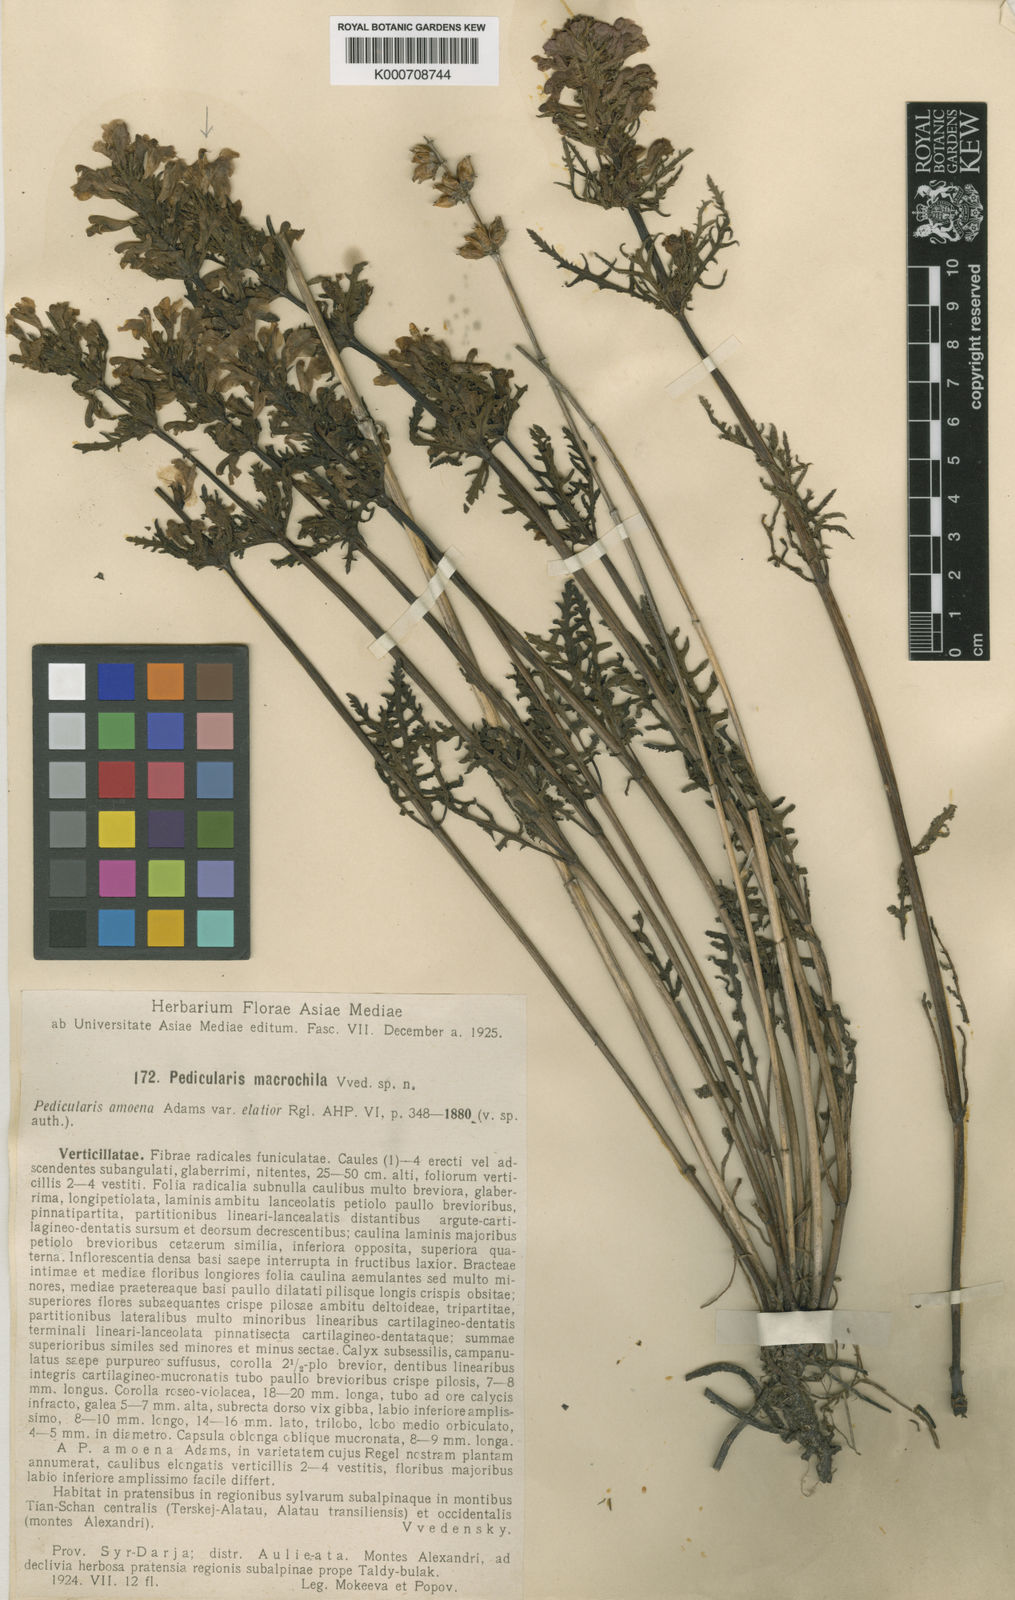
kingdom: Plantae
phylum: Tracheophyta
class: Magnoliopsida
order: Lamiales
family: Orobanchaceae
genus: Pedicularis
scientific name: Pedicularis
